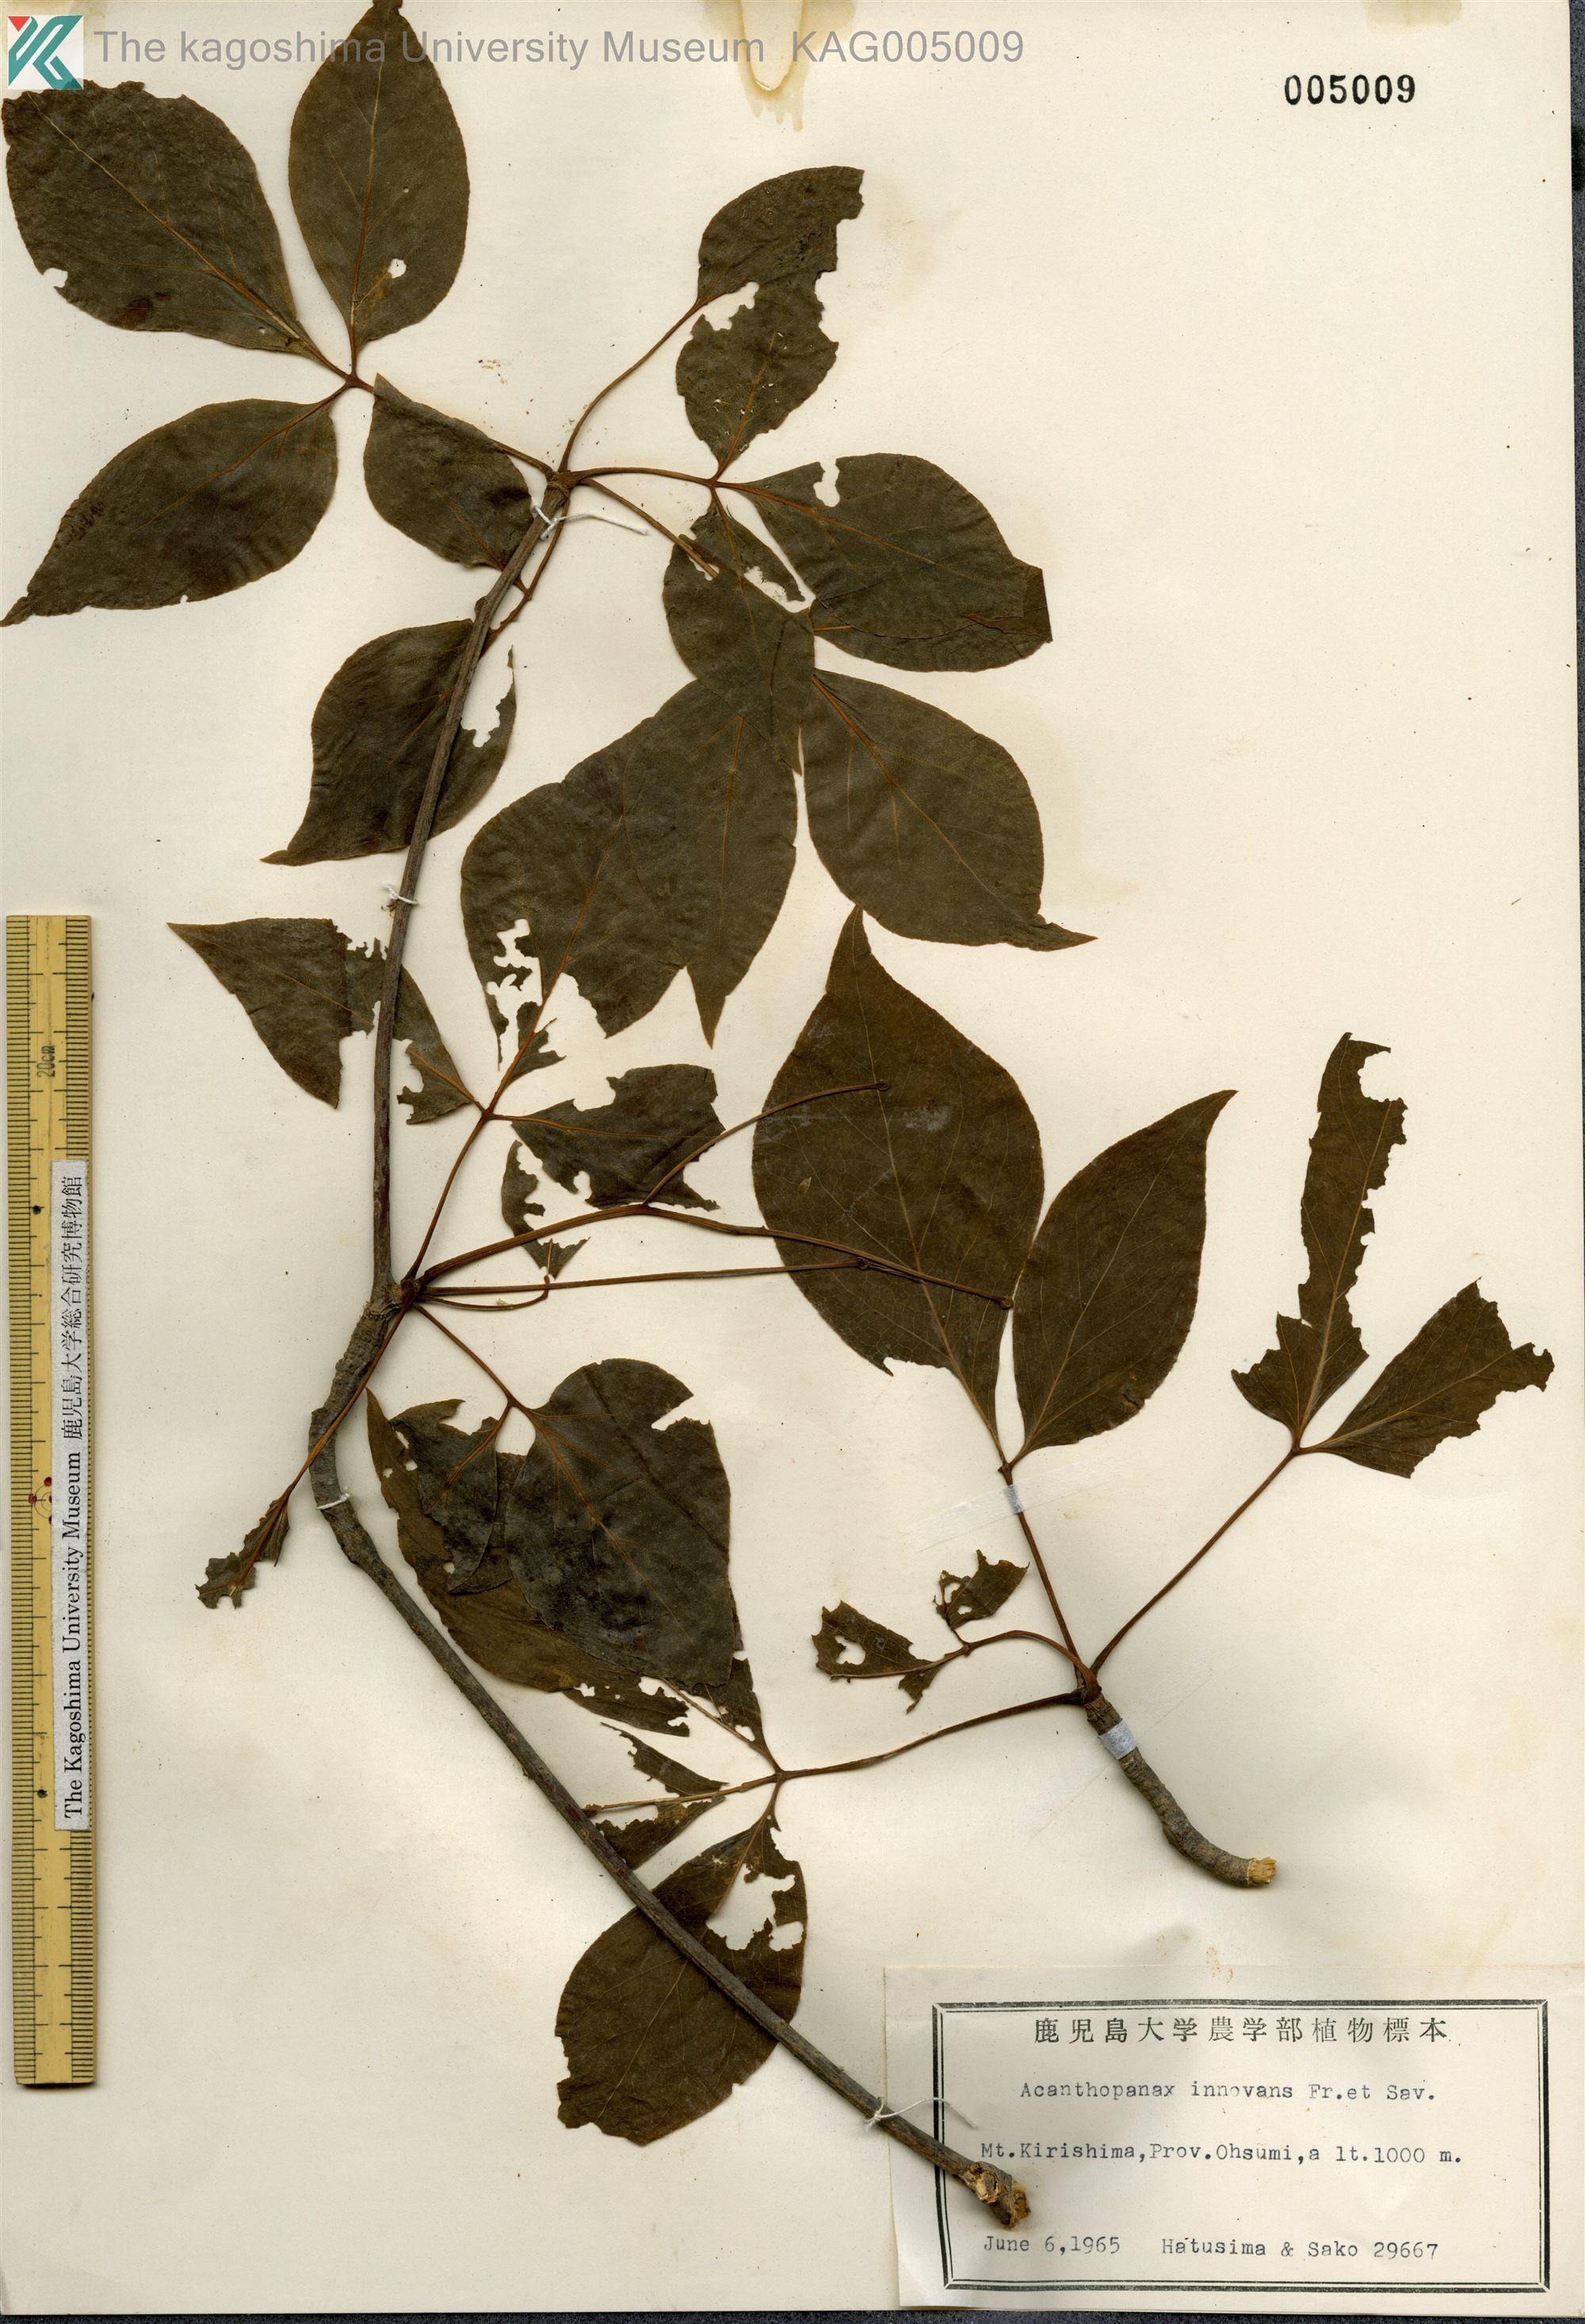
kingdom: Plantae
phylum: Tracheophyta
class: Magnoliopsida
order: Apiales
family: Araliaceae
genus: Gamblea
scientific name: Gamblea innovans
